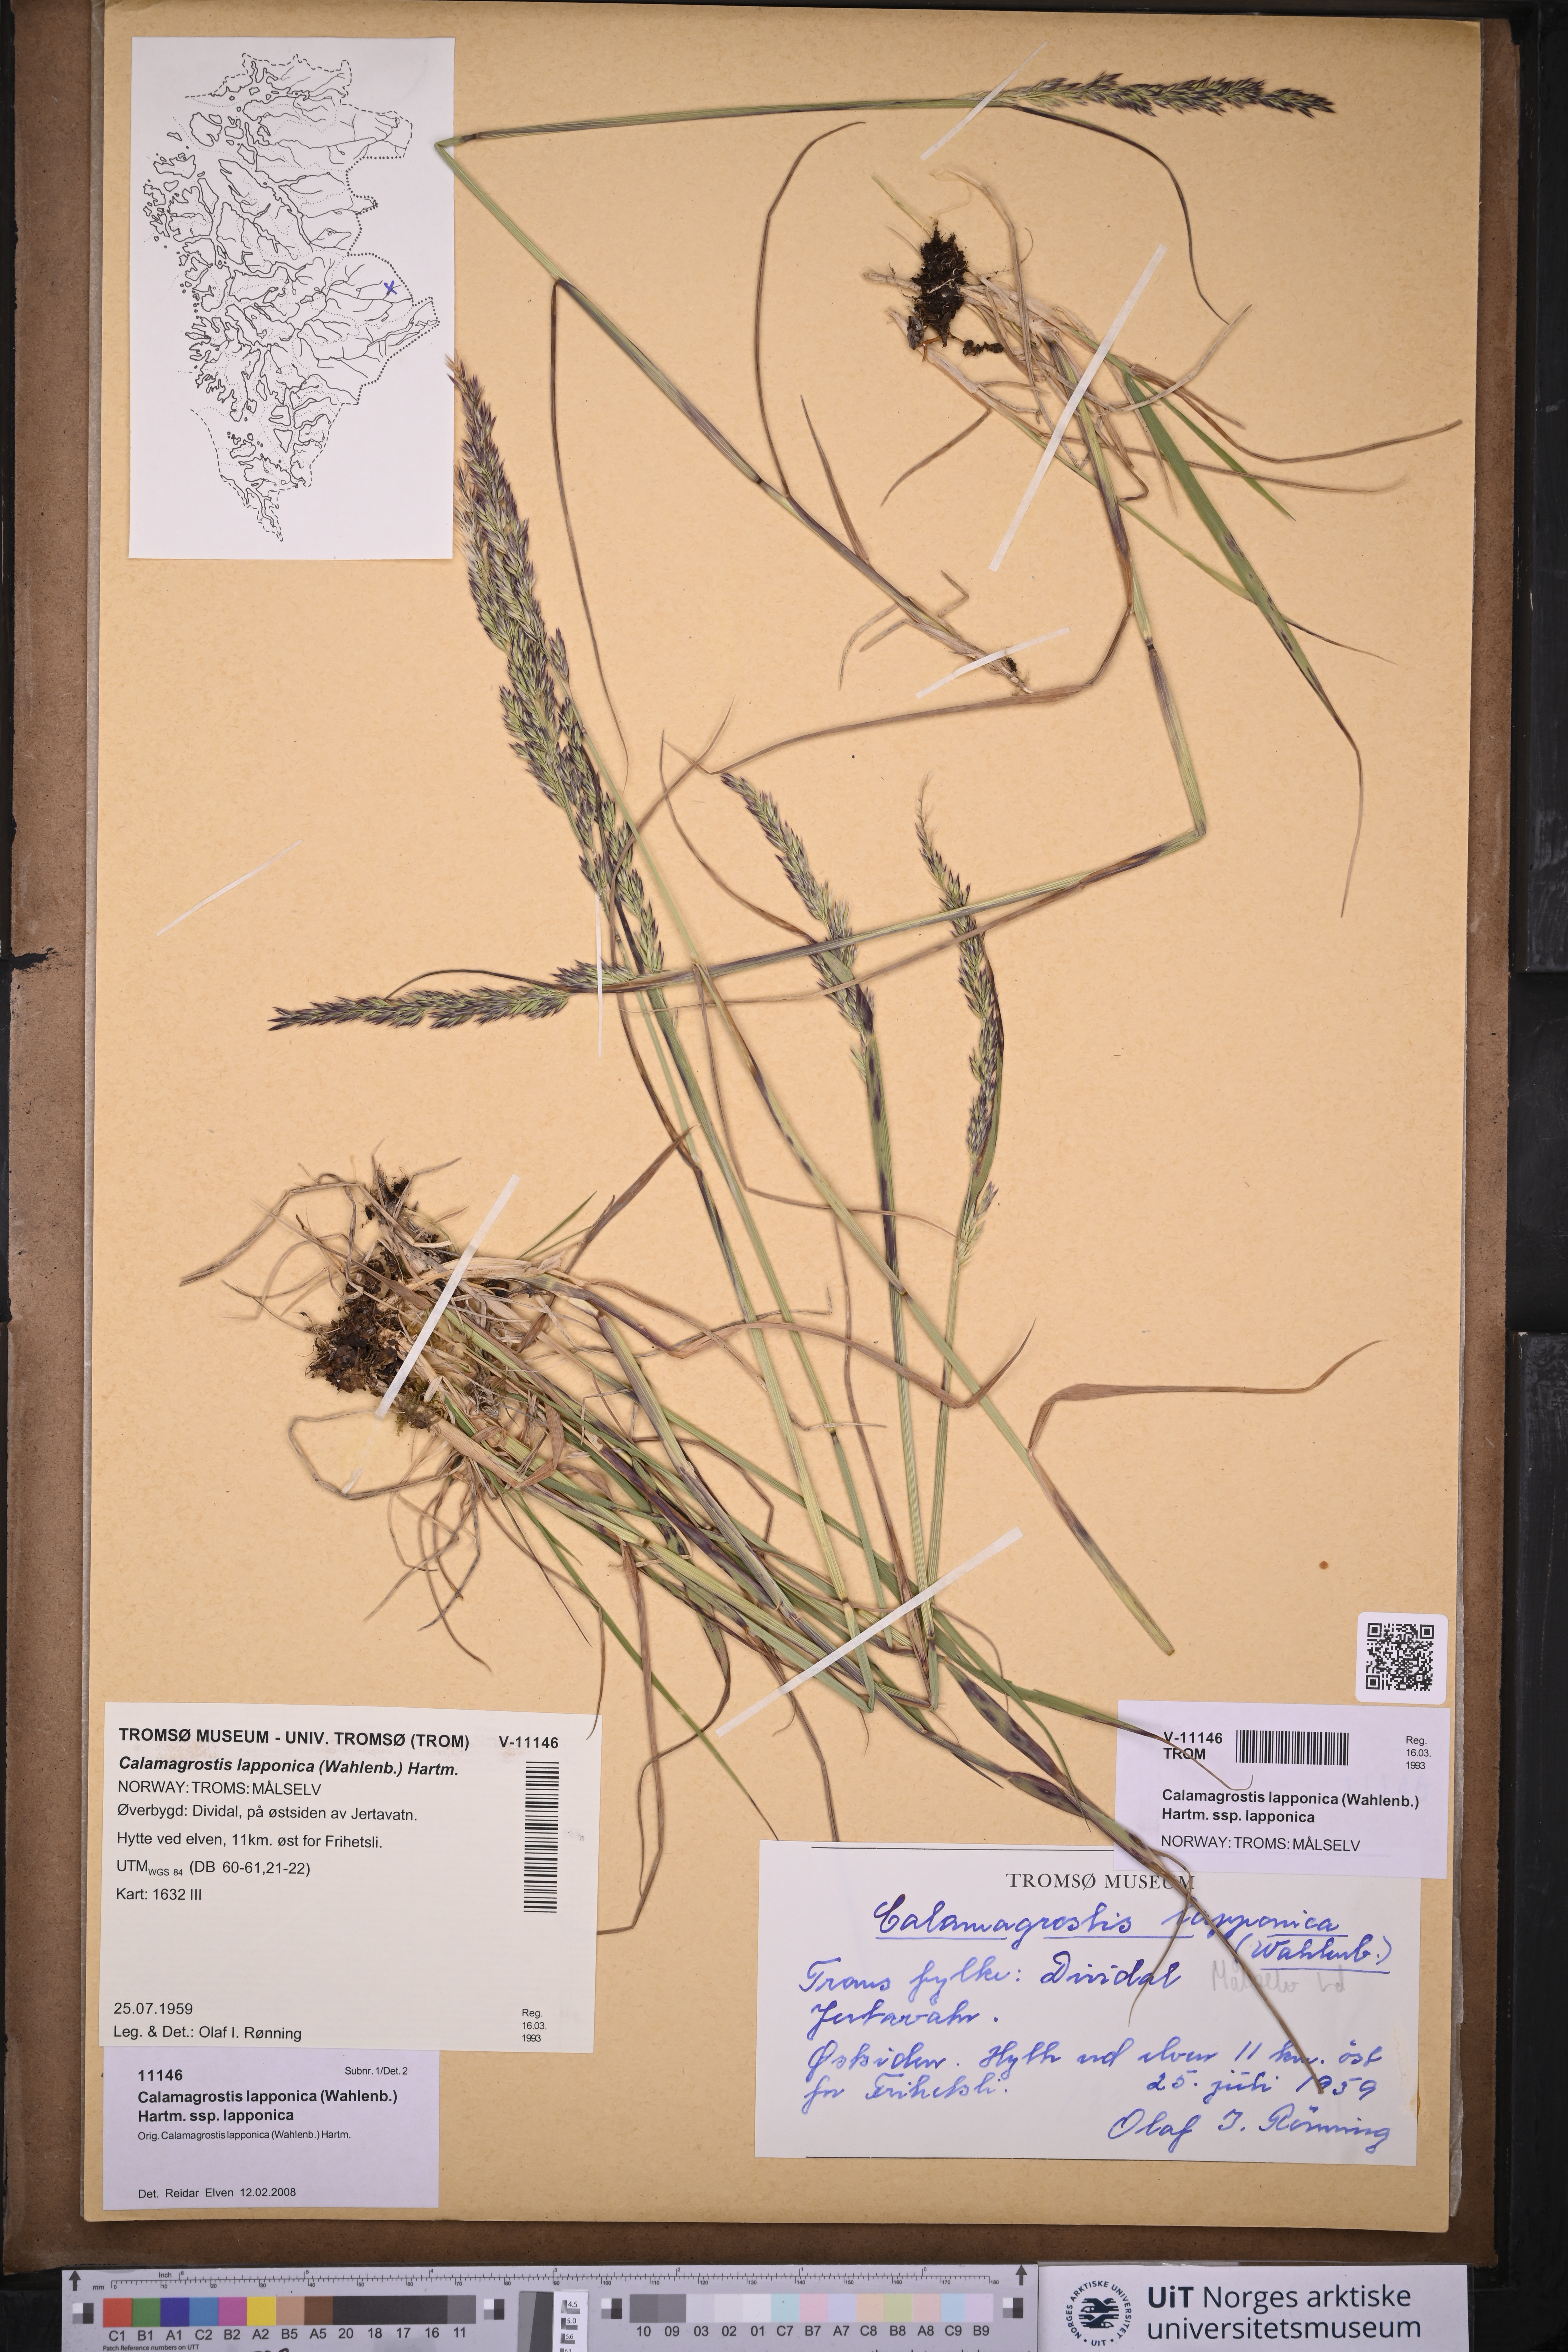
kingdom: Plantae
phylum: Tracheophyta
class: Liliopsida
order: Poales
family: Poaceae
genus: Calamagrostis
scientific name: Calamagrostis lapponica
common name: Lapland reedgrass
